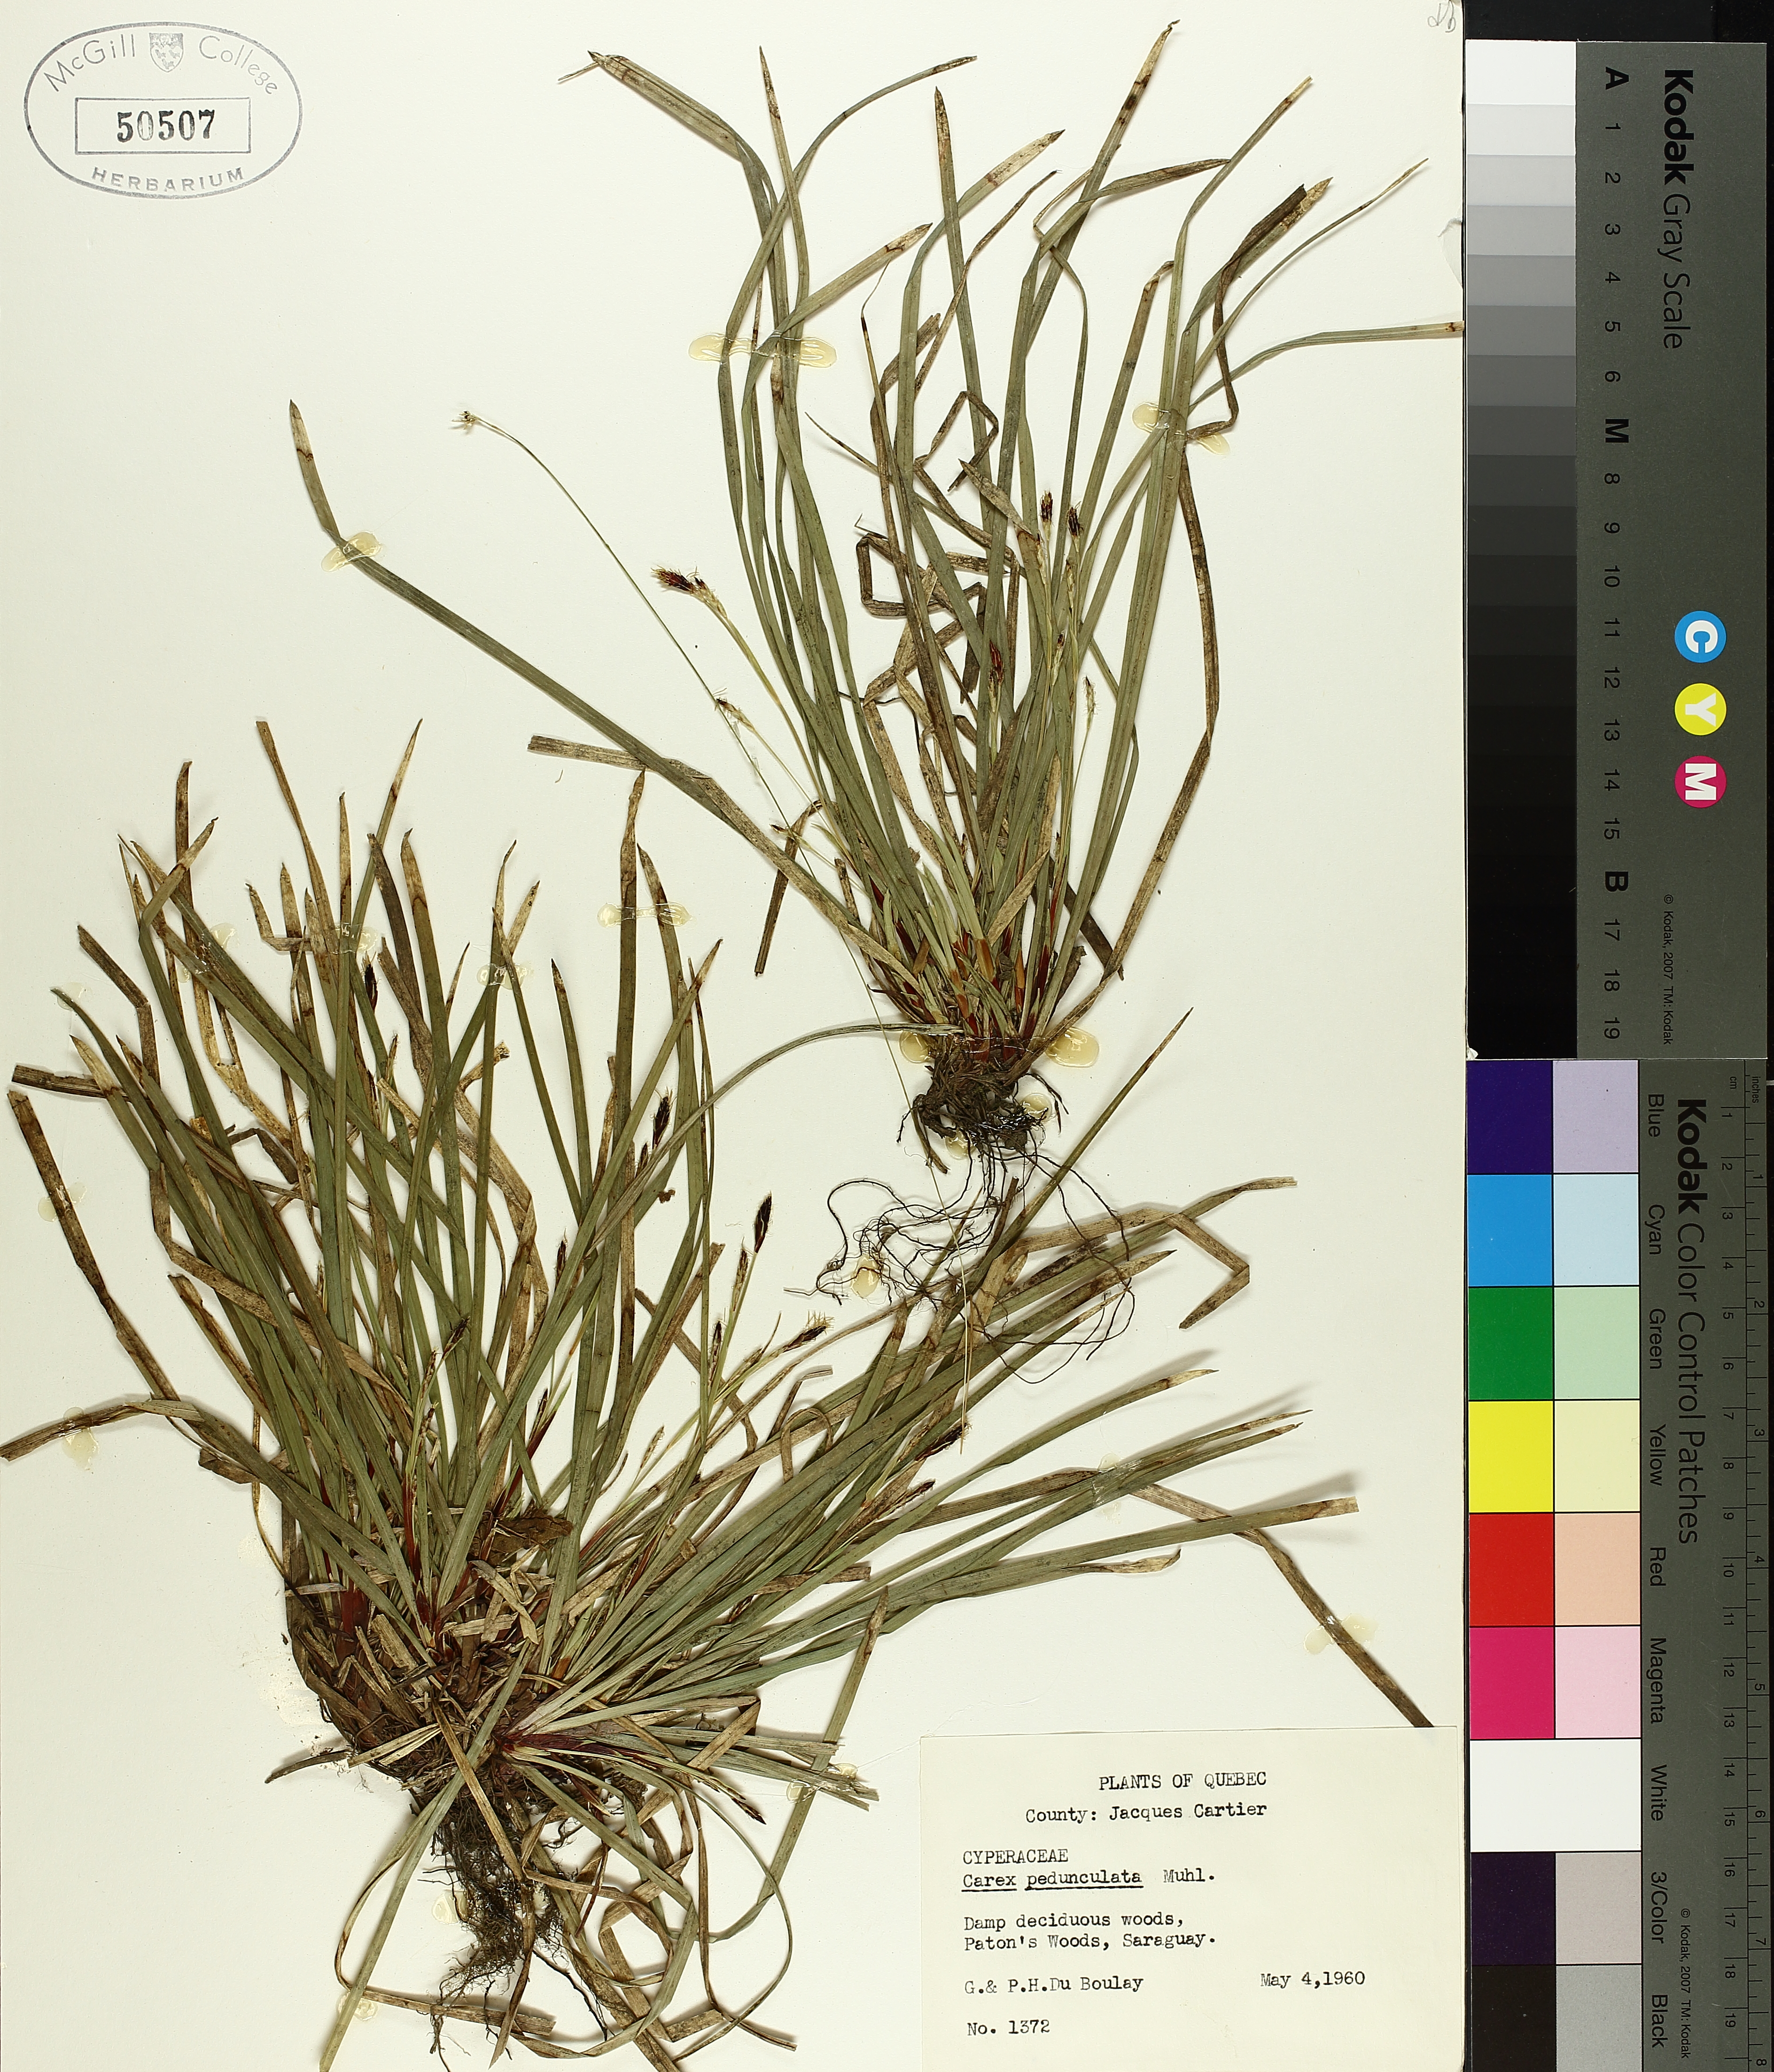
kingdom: Plantae
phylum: Tracheophyta
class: Liliopsida
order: Poales
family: Cyperaceae
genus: Carex
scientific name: Carex pedunculata
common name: Pedunculate sedge
